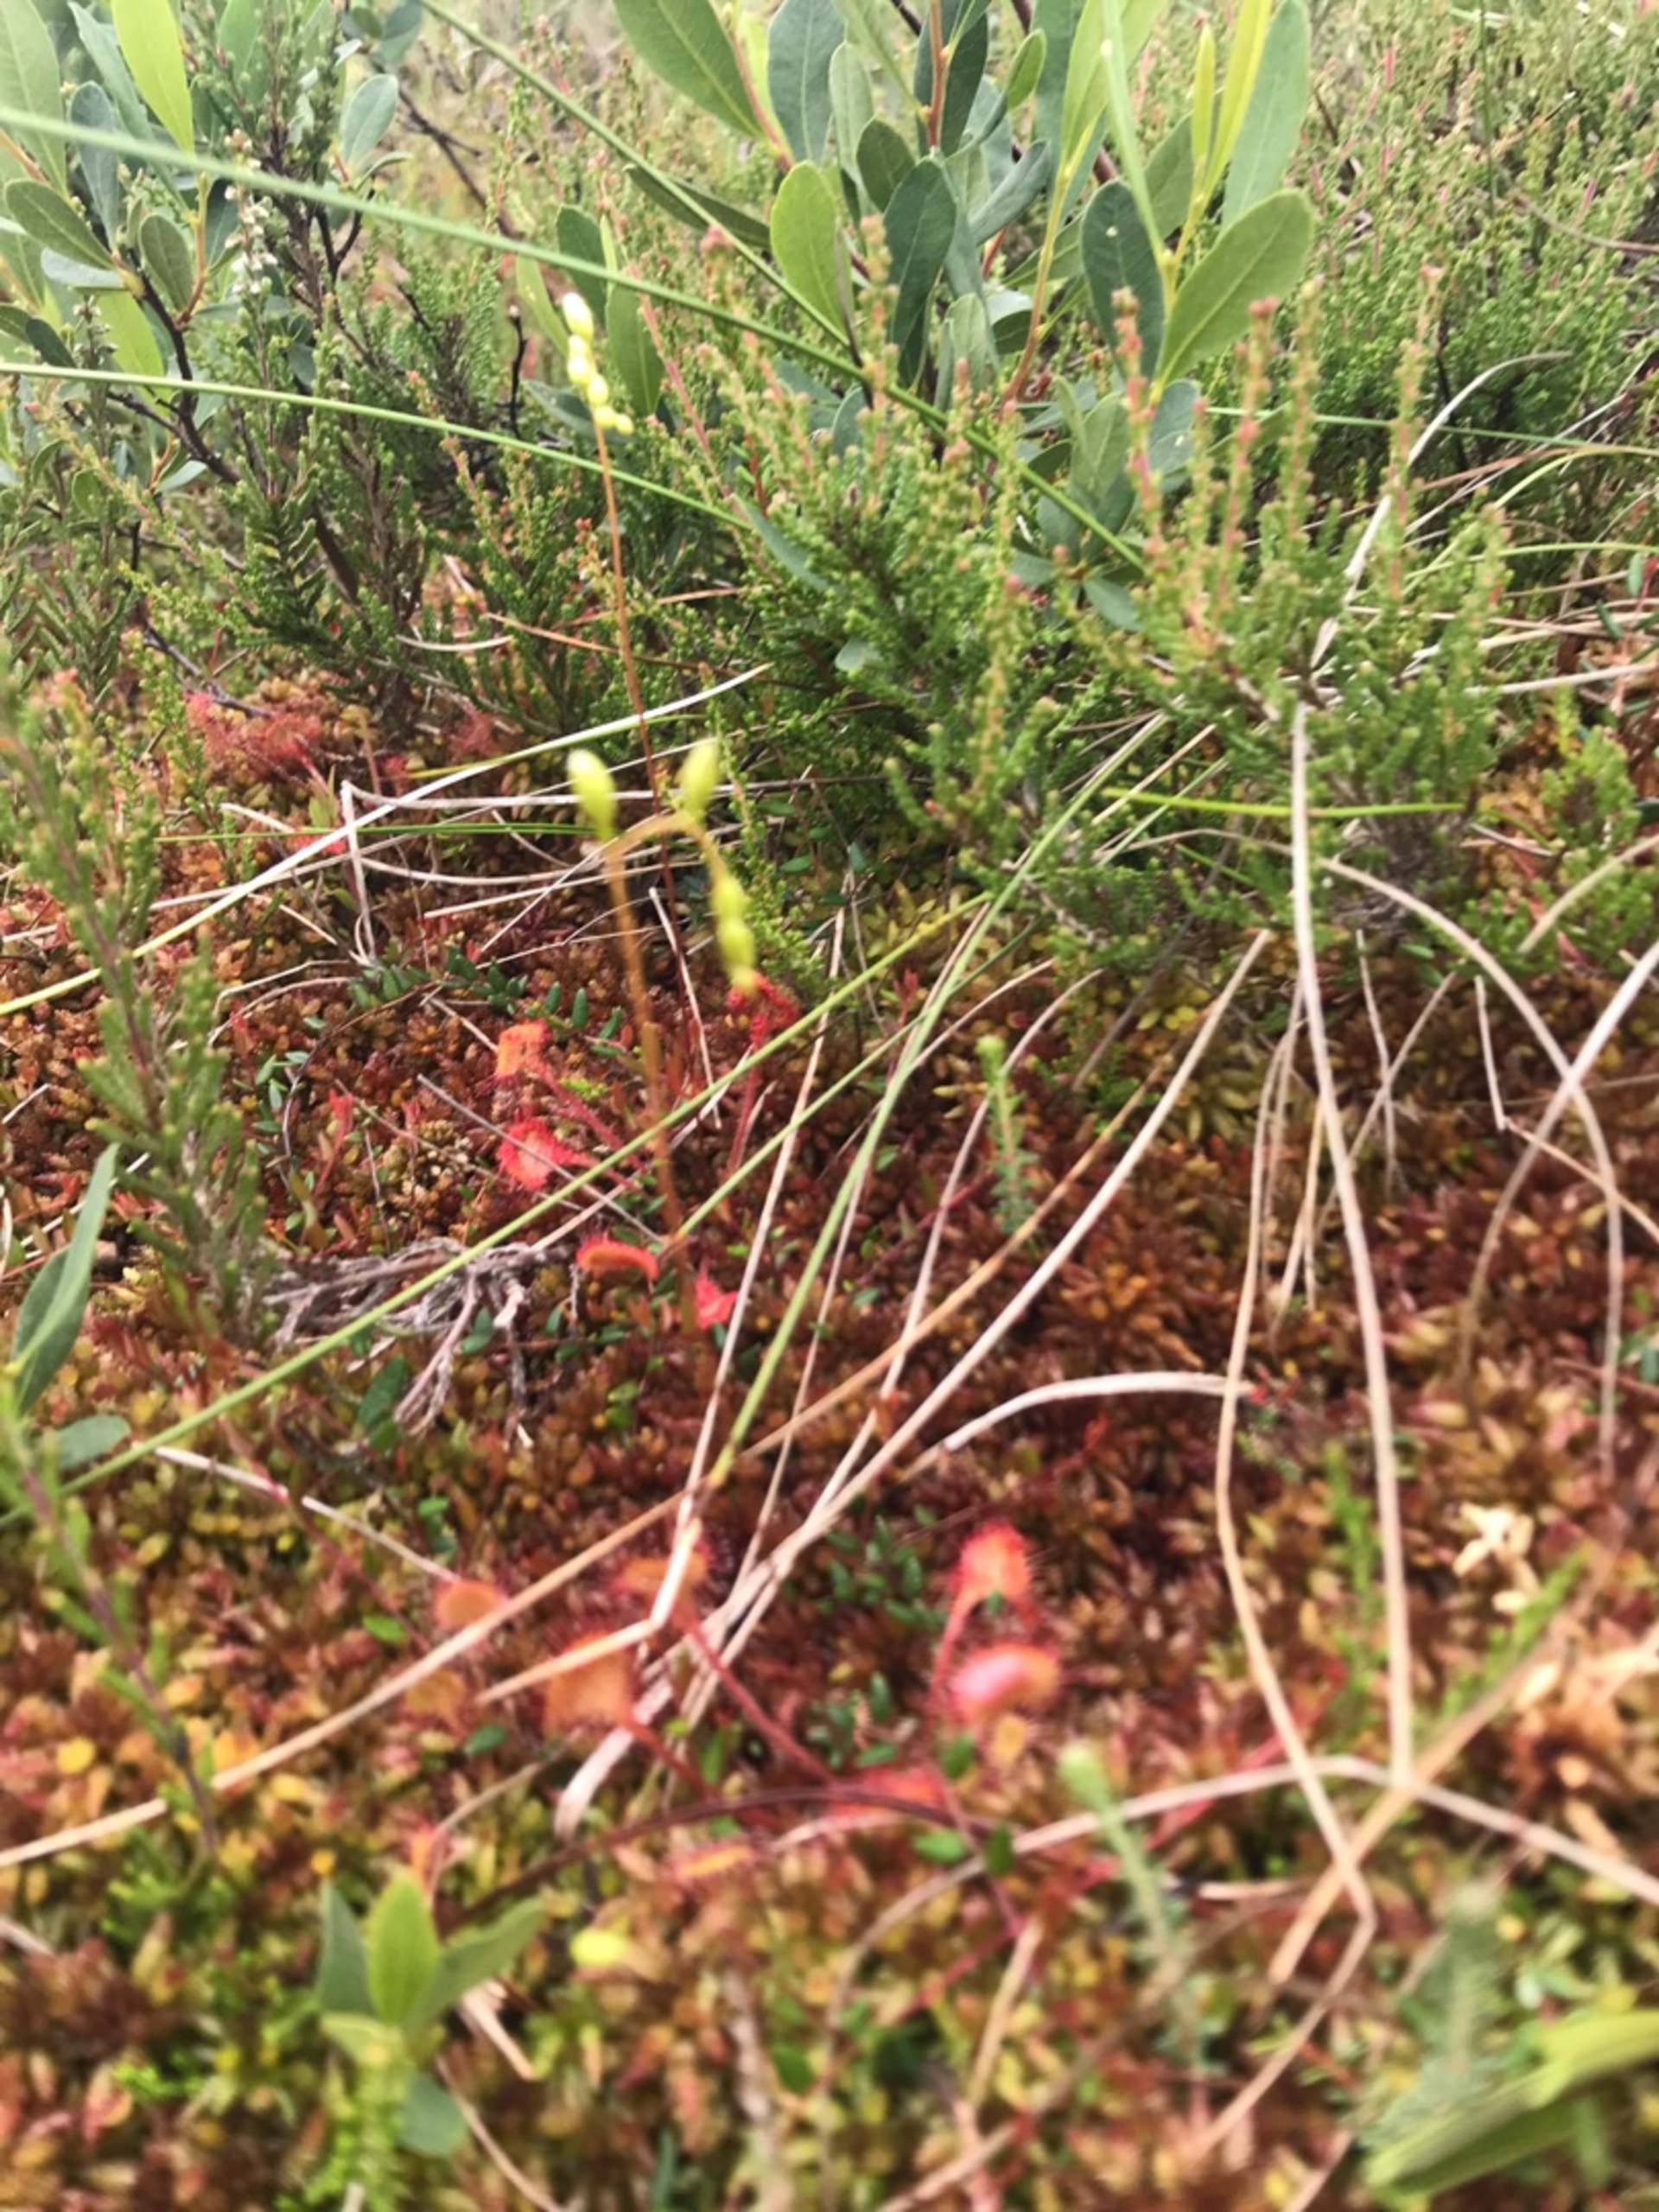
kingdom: Plantae
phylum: Tracheophyta
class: Magnoliopsida
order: Caryophyllales
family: Droseraceae
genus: Drosera
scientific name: Drosera rotundifolia
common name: Rundbladet soldug
